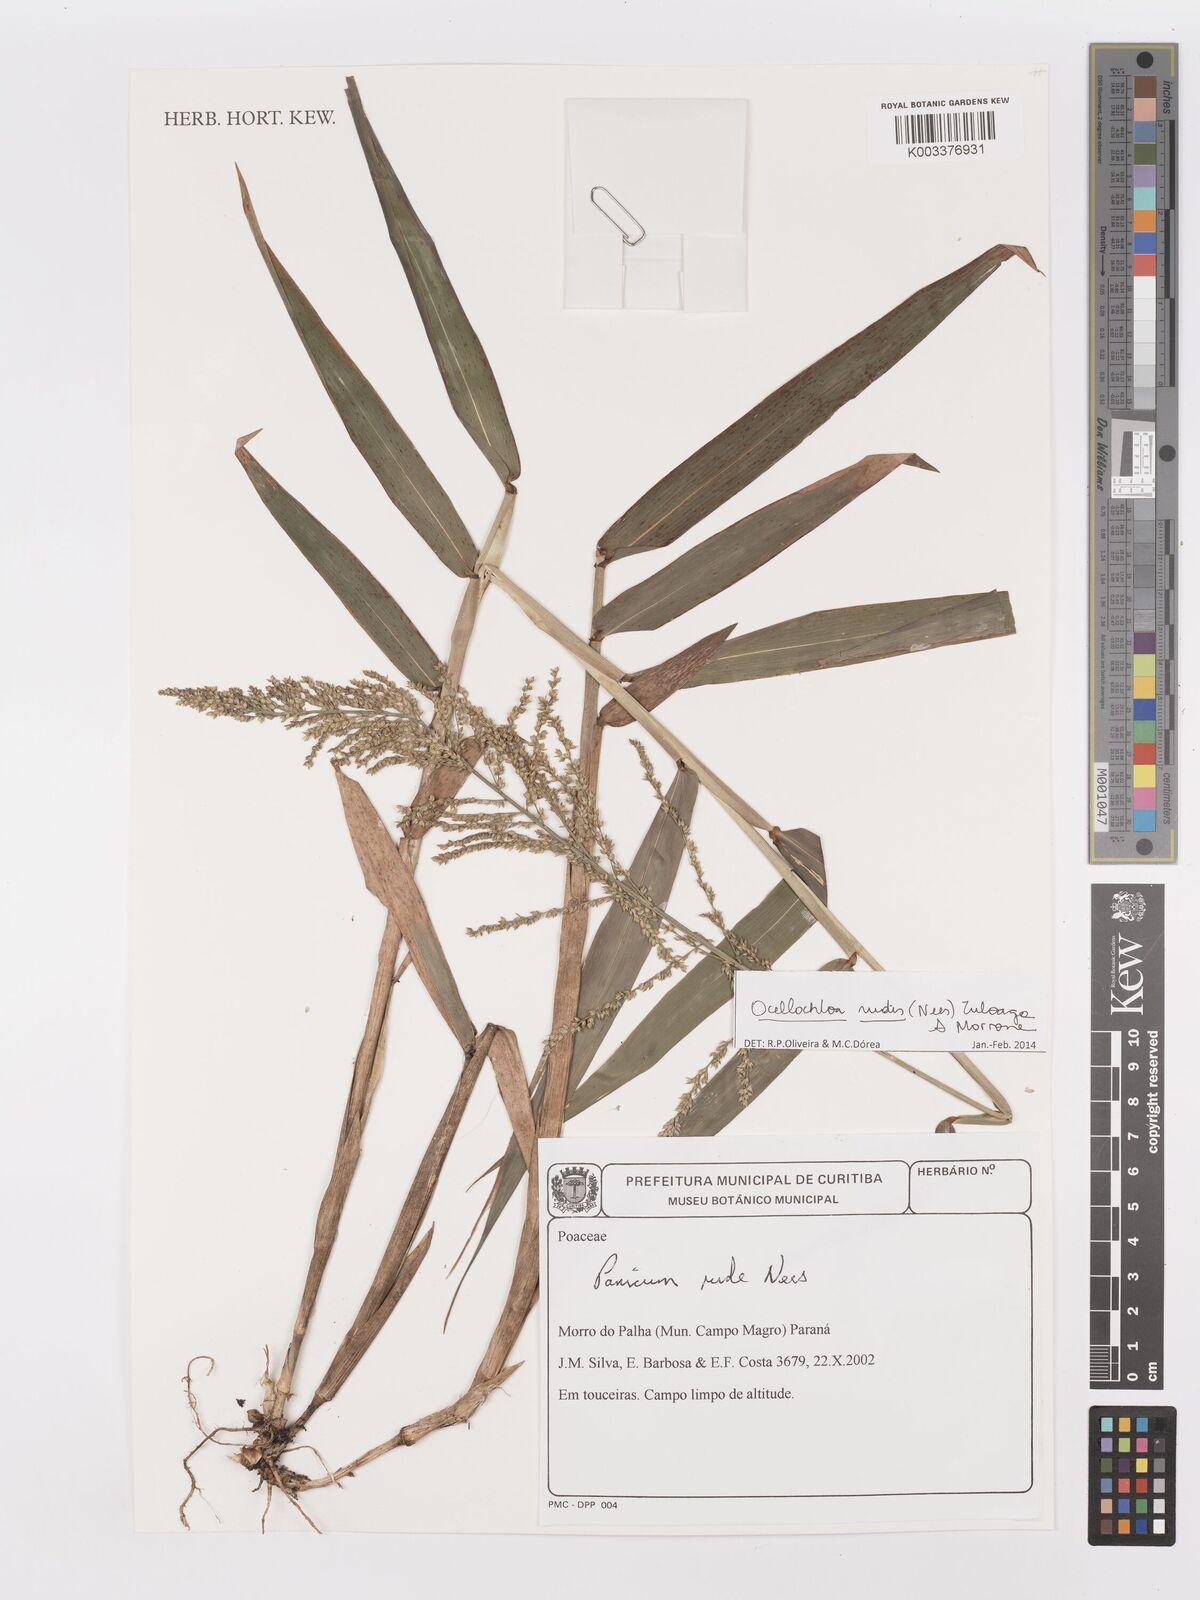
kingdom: Plantae
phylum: Tracheophyta
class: Liliopsida
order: Poales
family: Poaceae
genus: Ocellochloa
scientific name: Ocellochloa rudis
